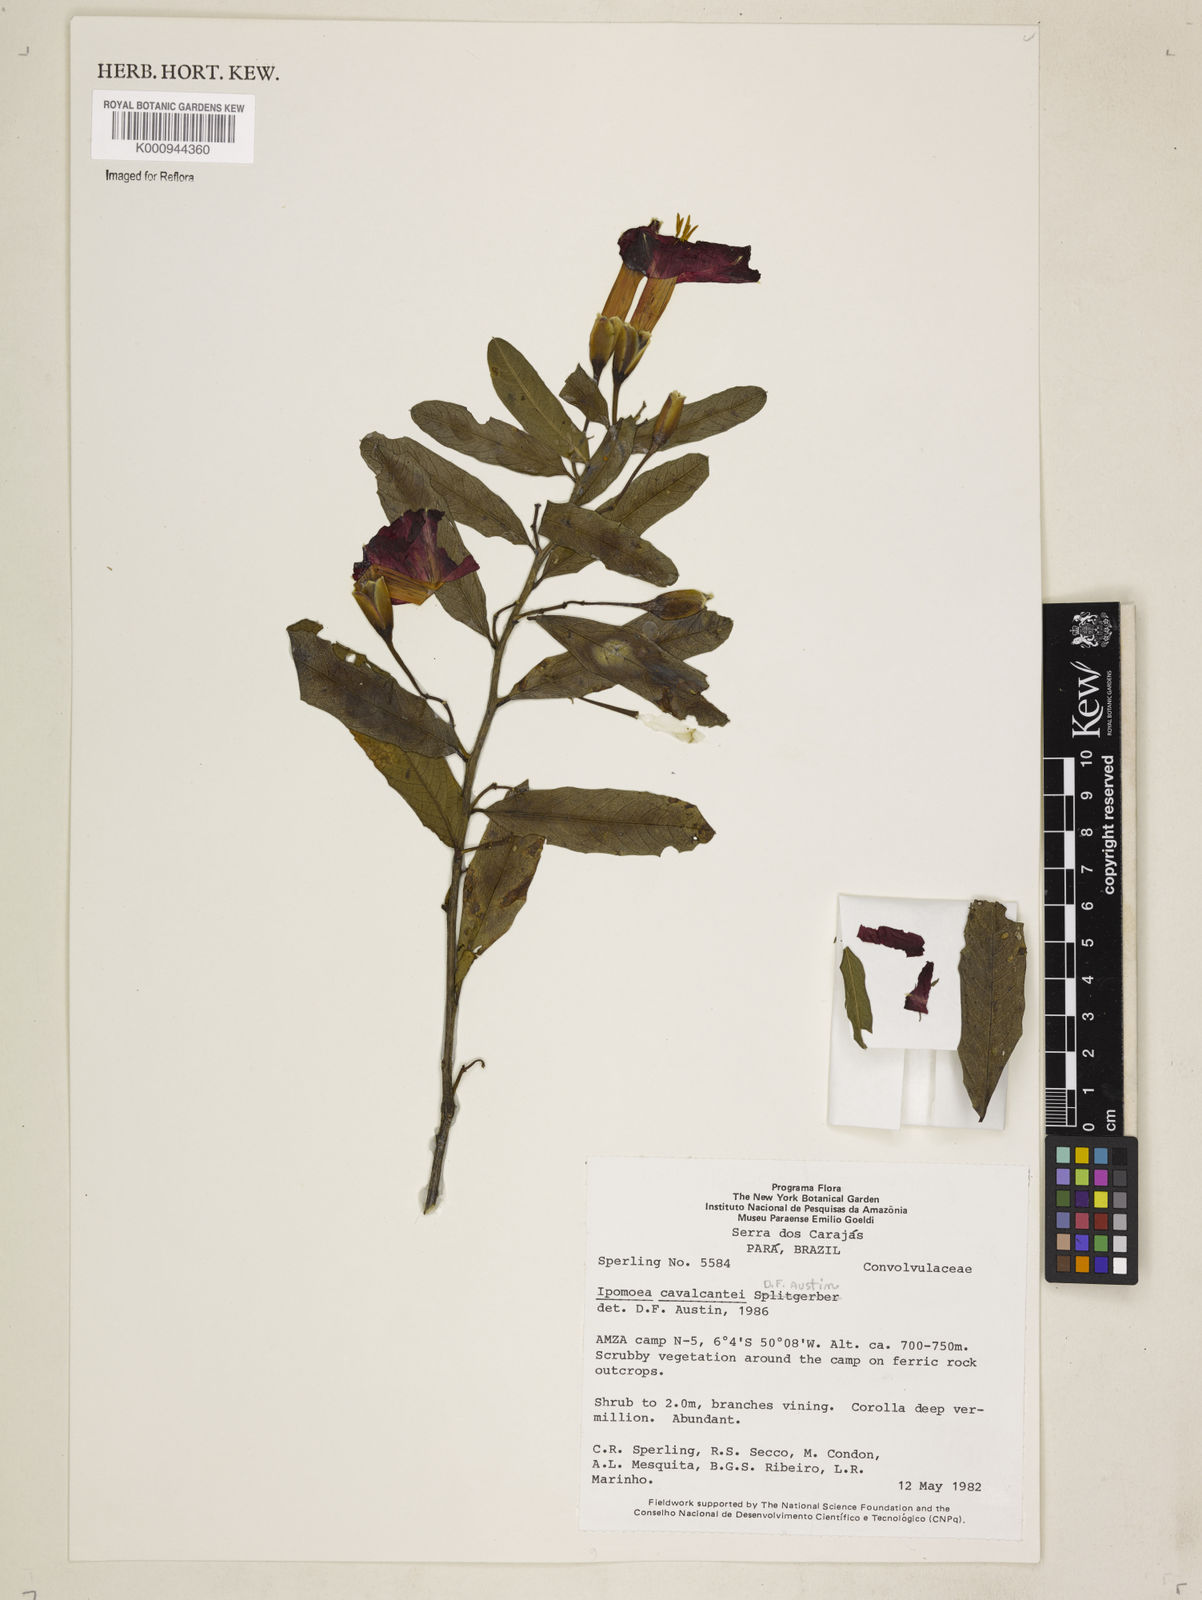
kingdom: Plantae
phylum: Tracheophyta
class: Magnoliopsida
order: Solanales
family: Convolvulaceae
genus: Ipomoea
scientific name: Ipomoea cavalcantei
